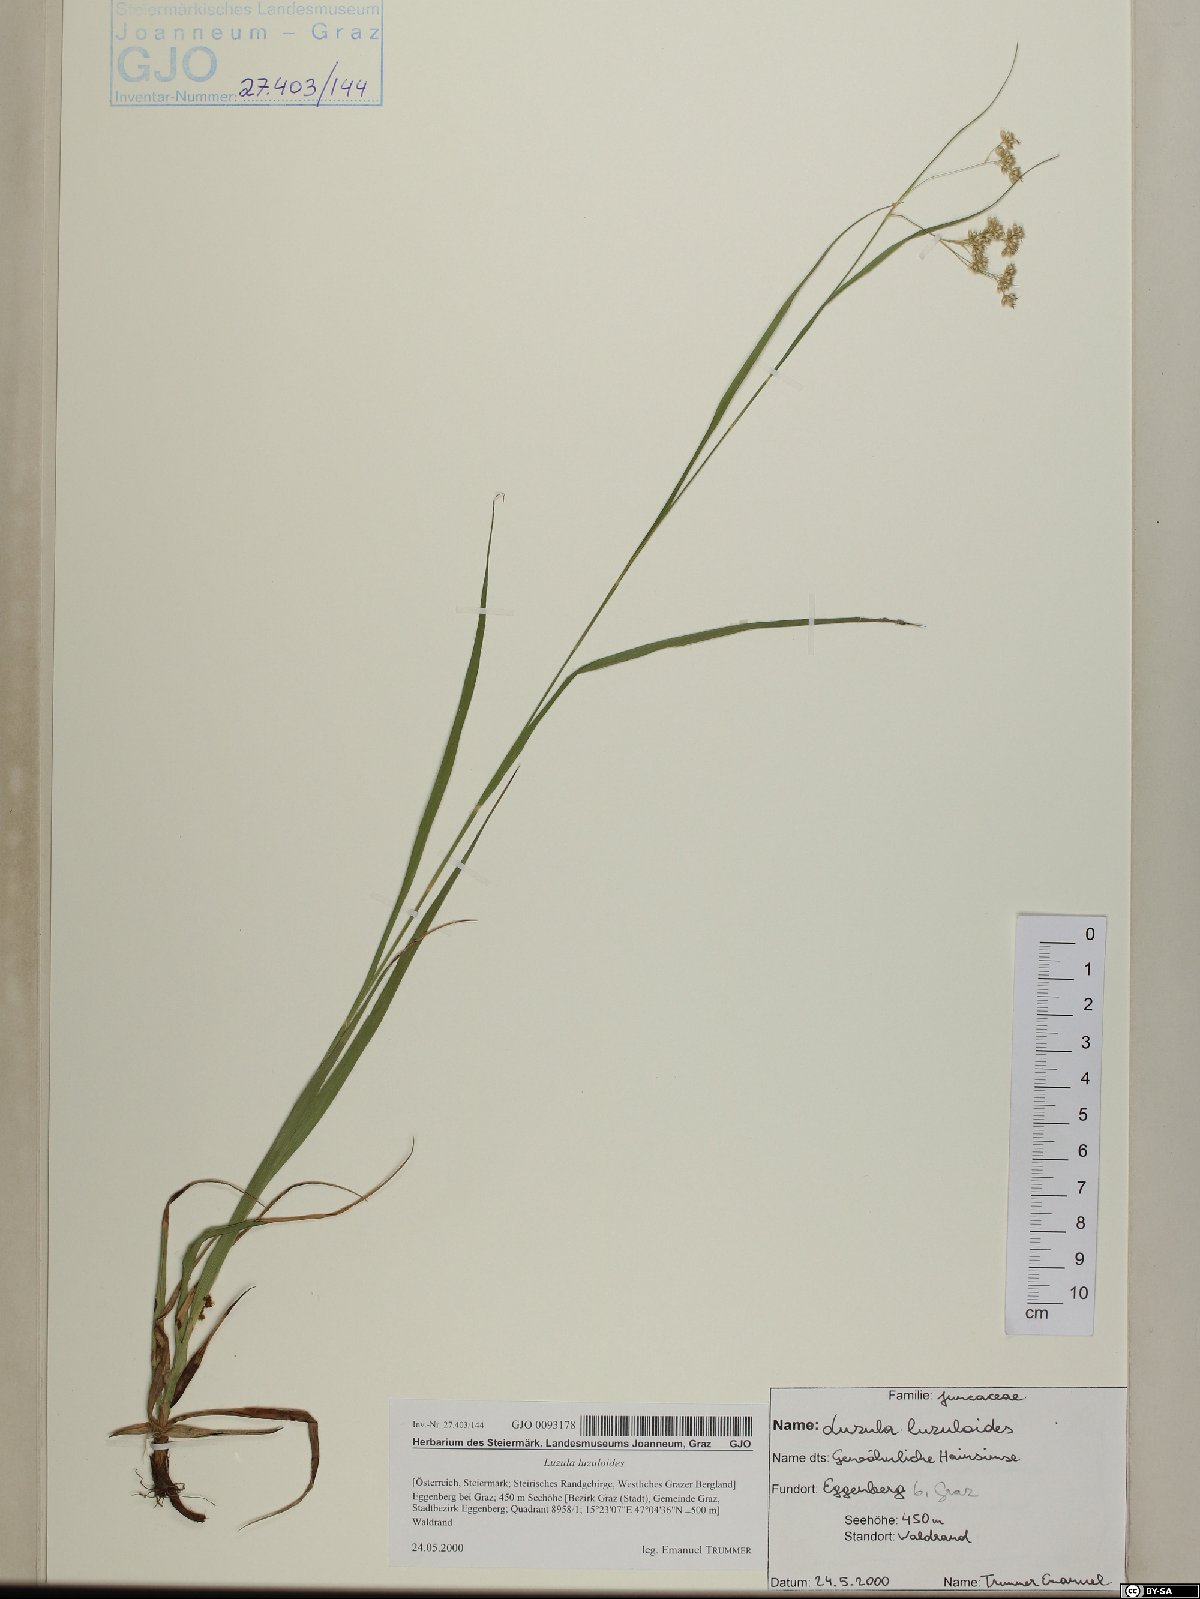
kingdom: Plantae
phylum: Tracheophyta
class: Liliopsida
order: Poales
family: Juncaceae
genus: Luzula
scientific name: Luzula luzuloides
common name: White wood-rush
